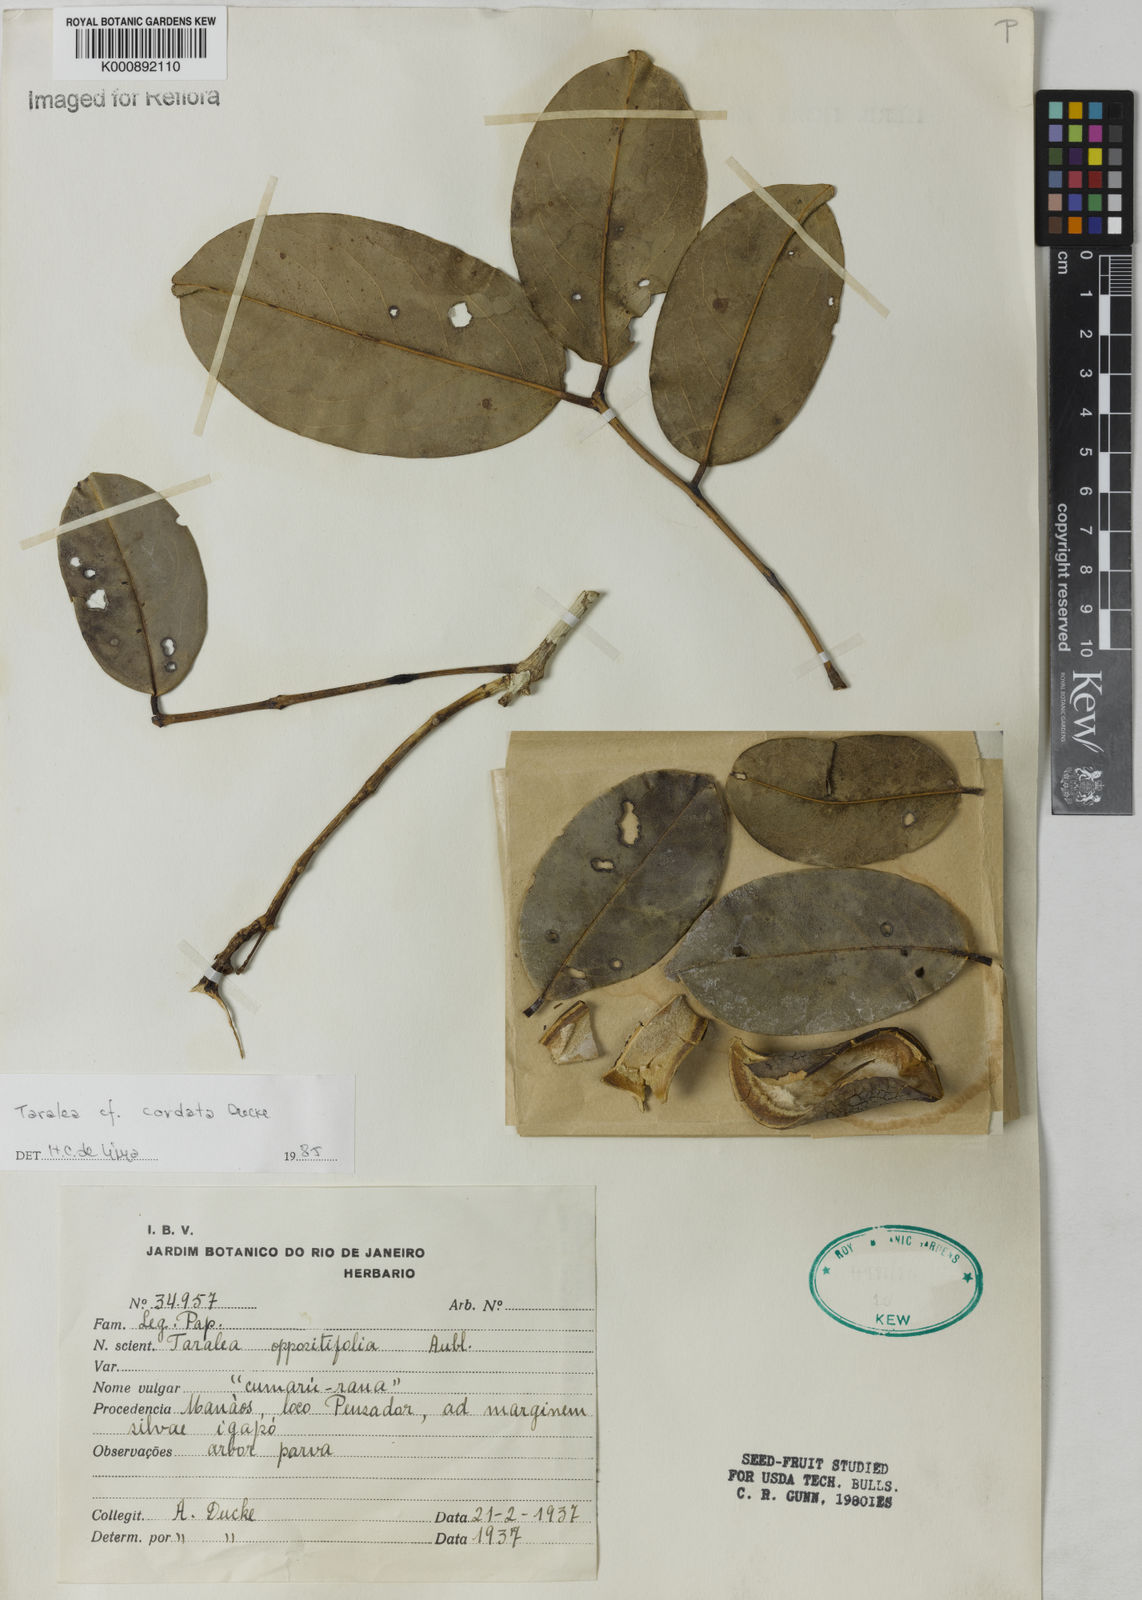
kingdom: Plantae
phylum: Tracheophyta
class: Magnoliopsida
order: Fabales
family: Fabaceae
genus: Taralea
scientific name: Taralea cordata
